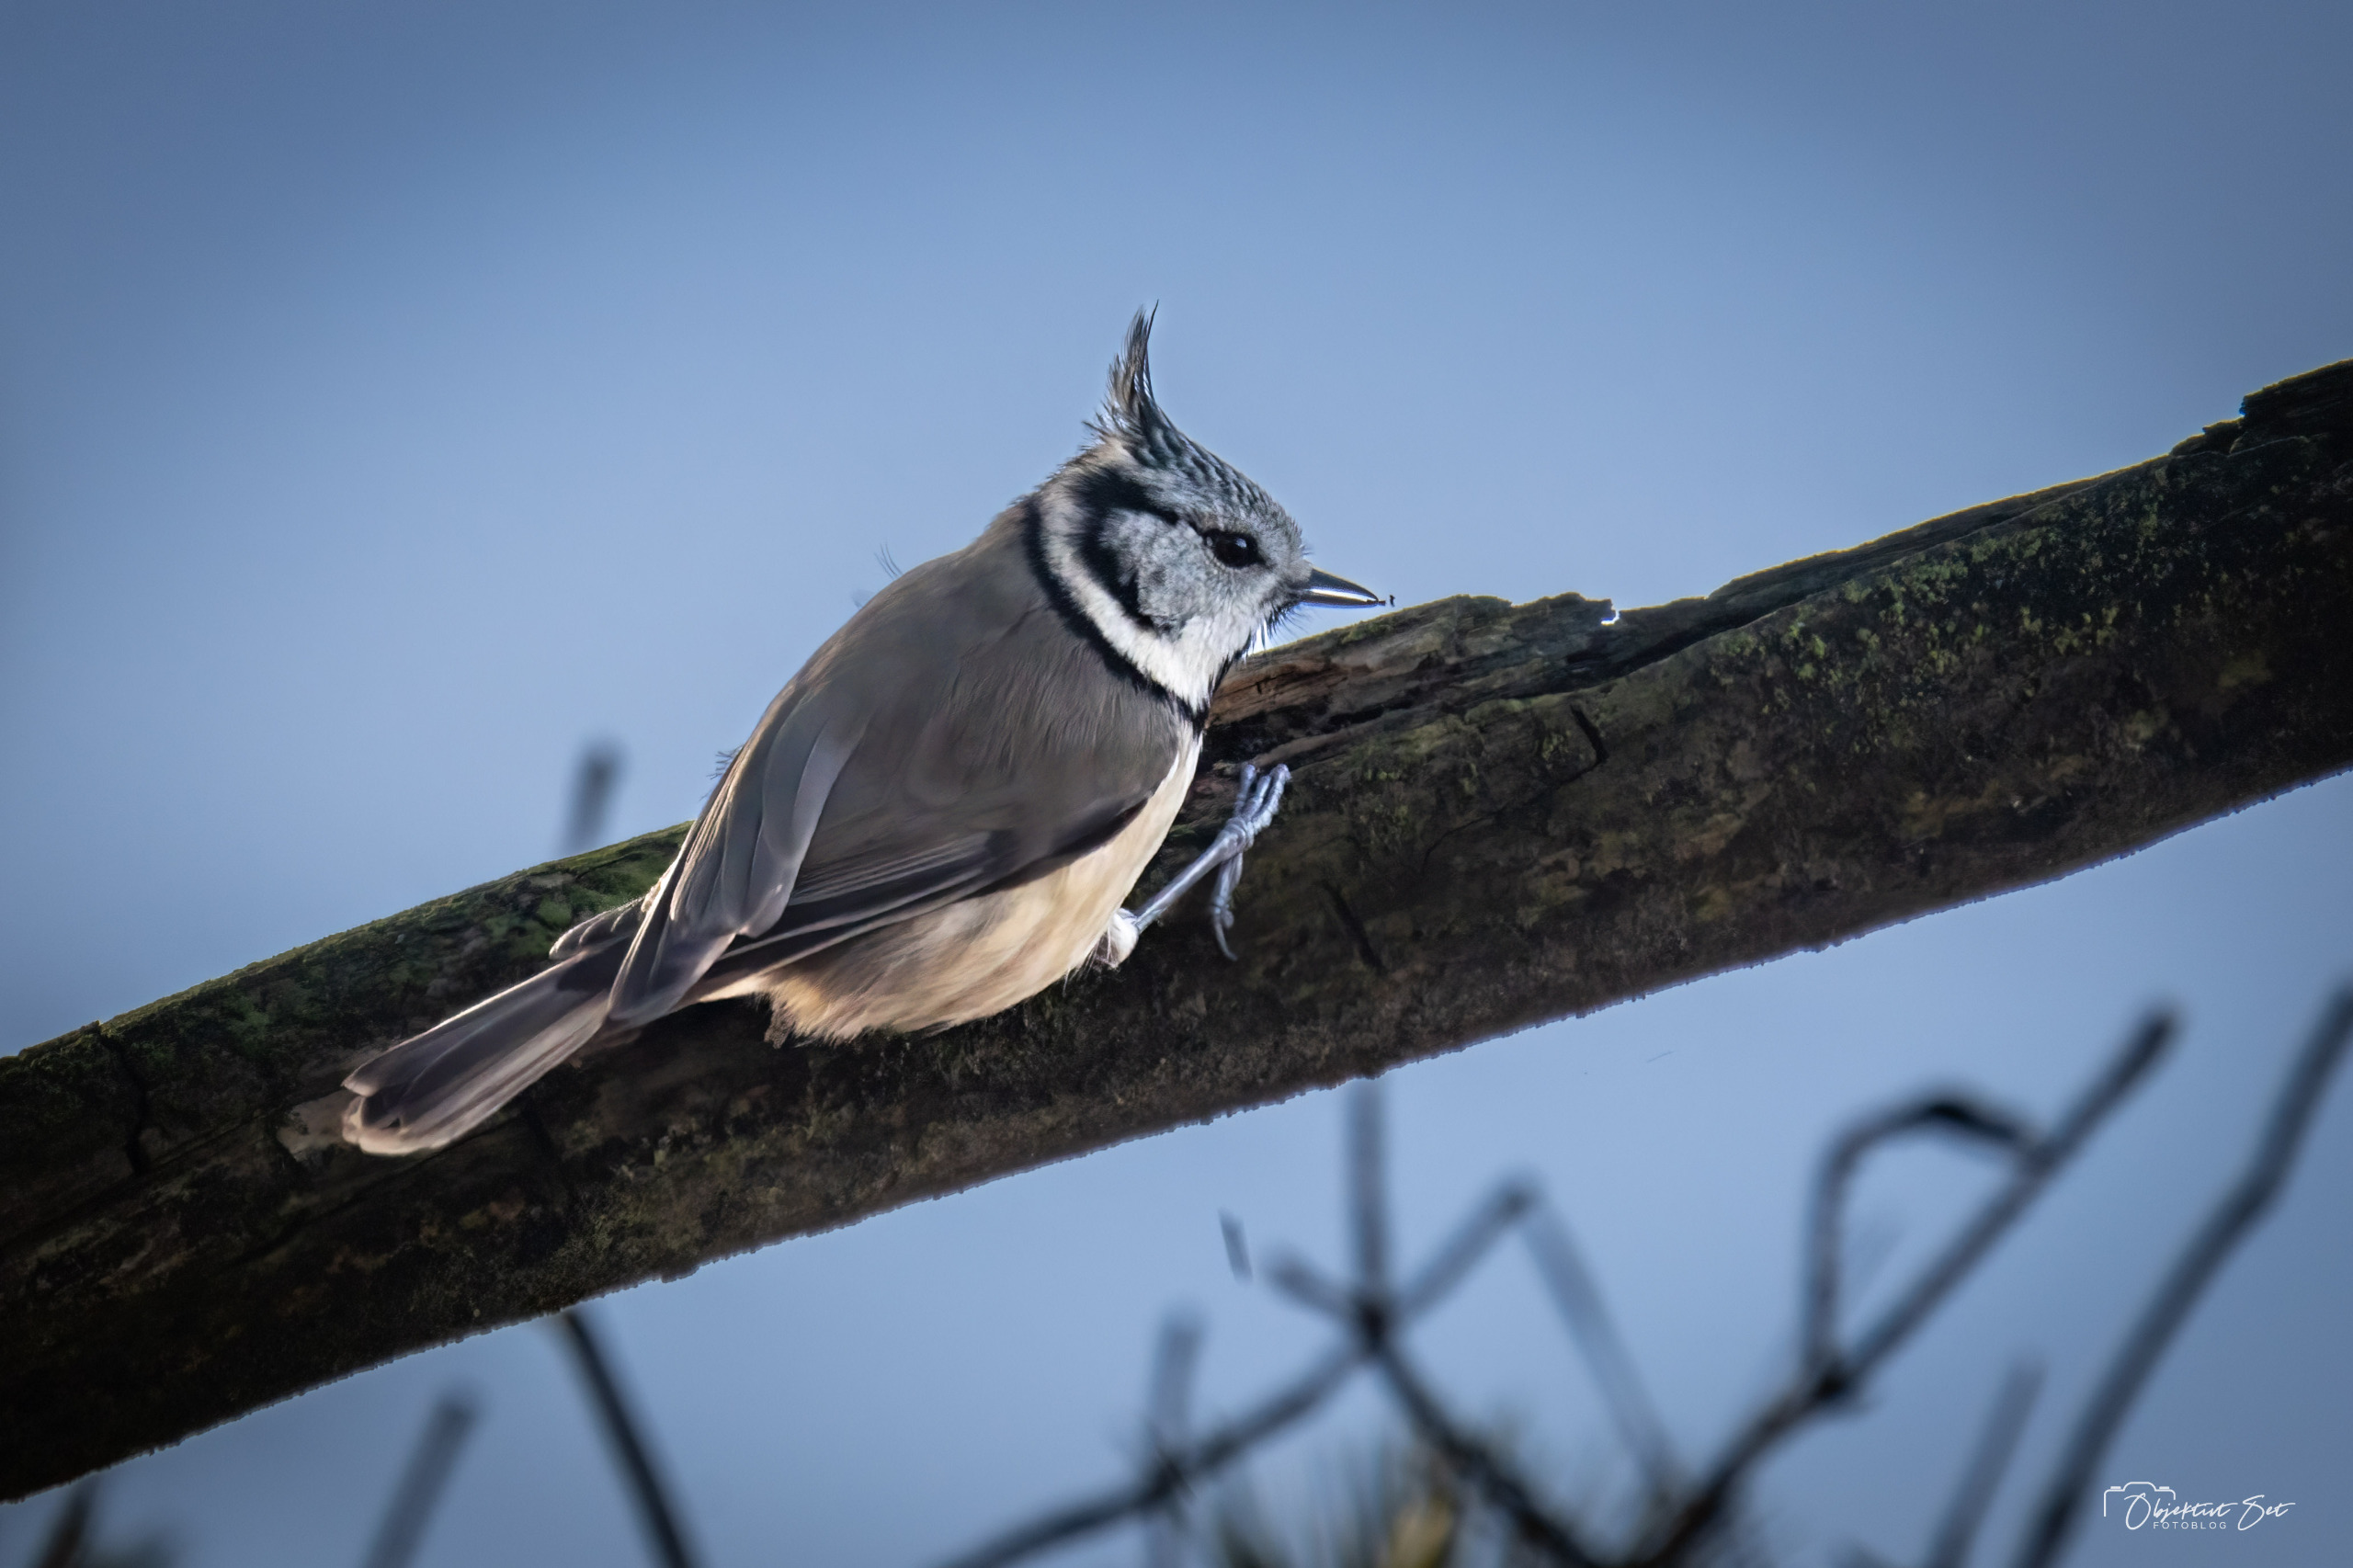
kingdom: Animalia
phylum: Chordata
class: Aves
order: Passeriformes
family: Paridae
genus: Lophophanes
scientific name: Lophophanes cristatus
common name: Topmejse
